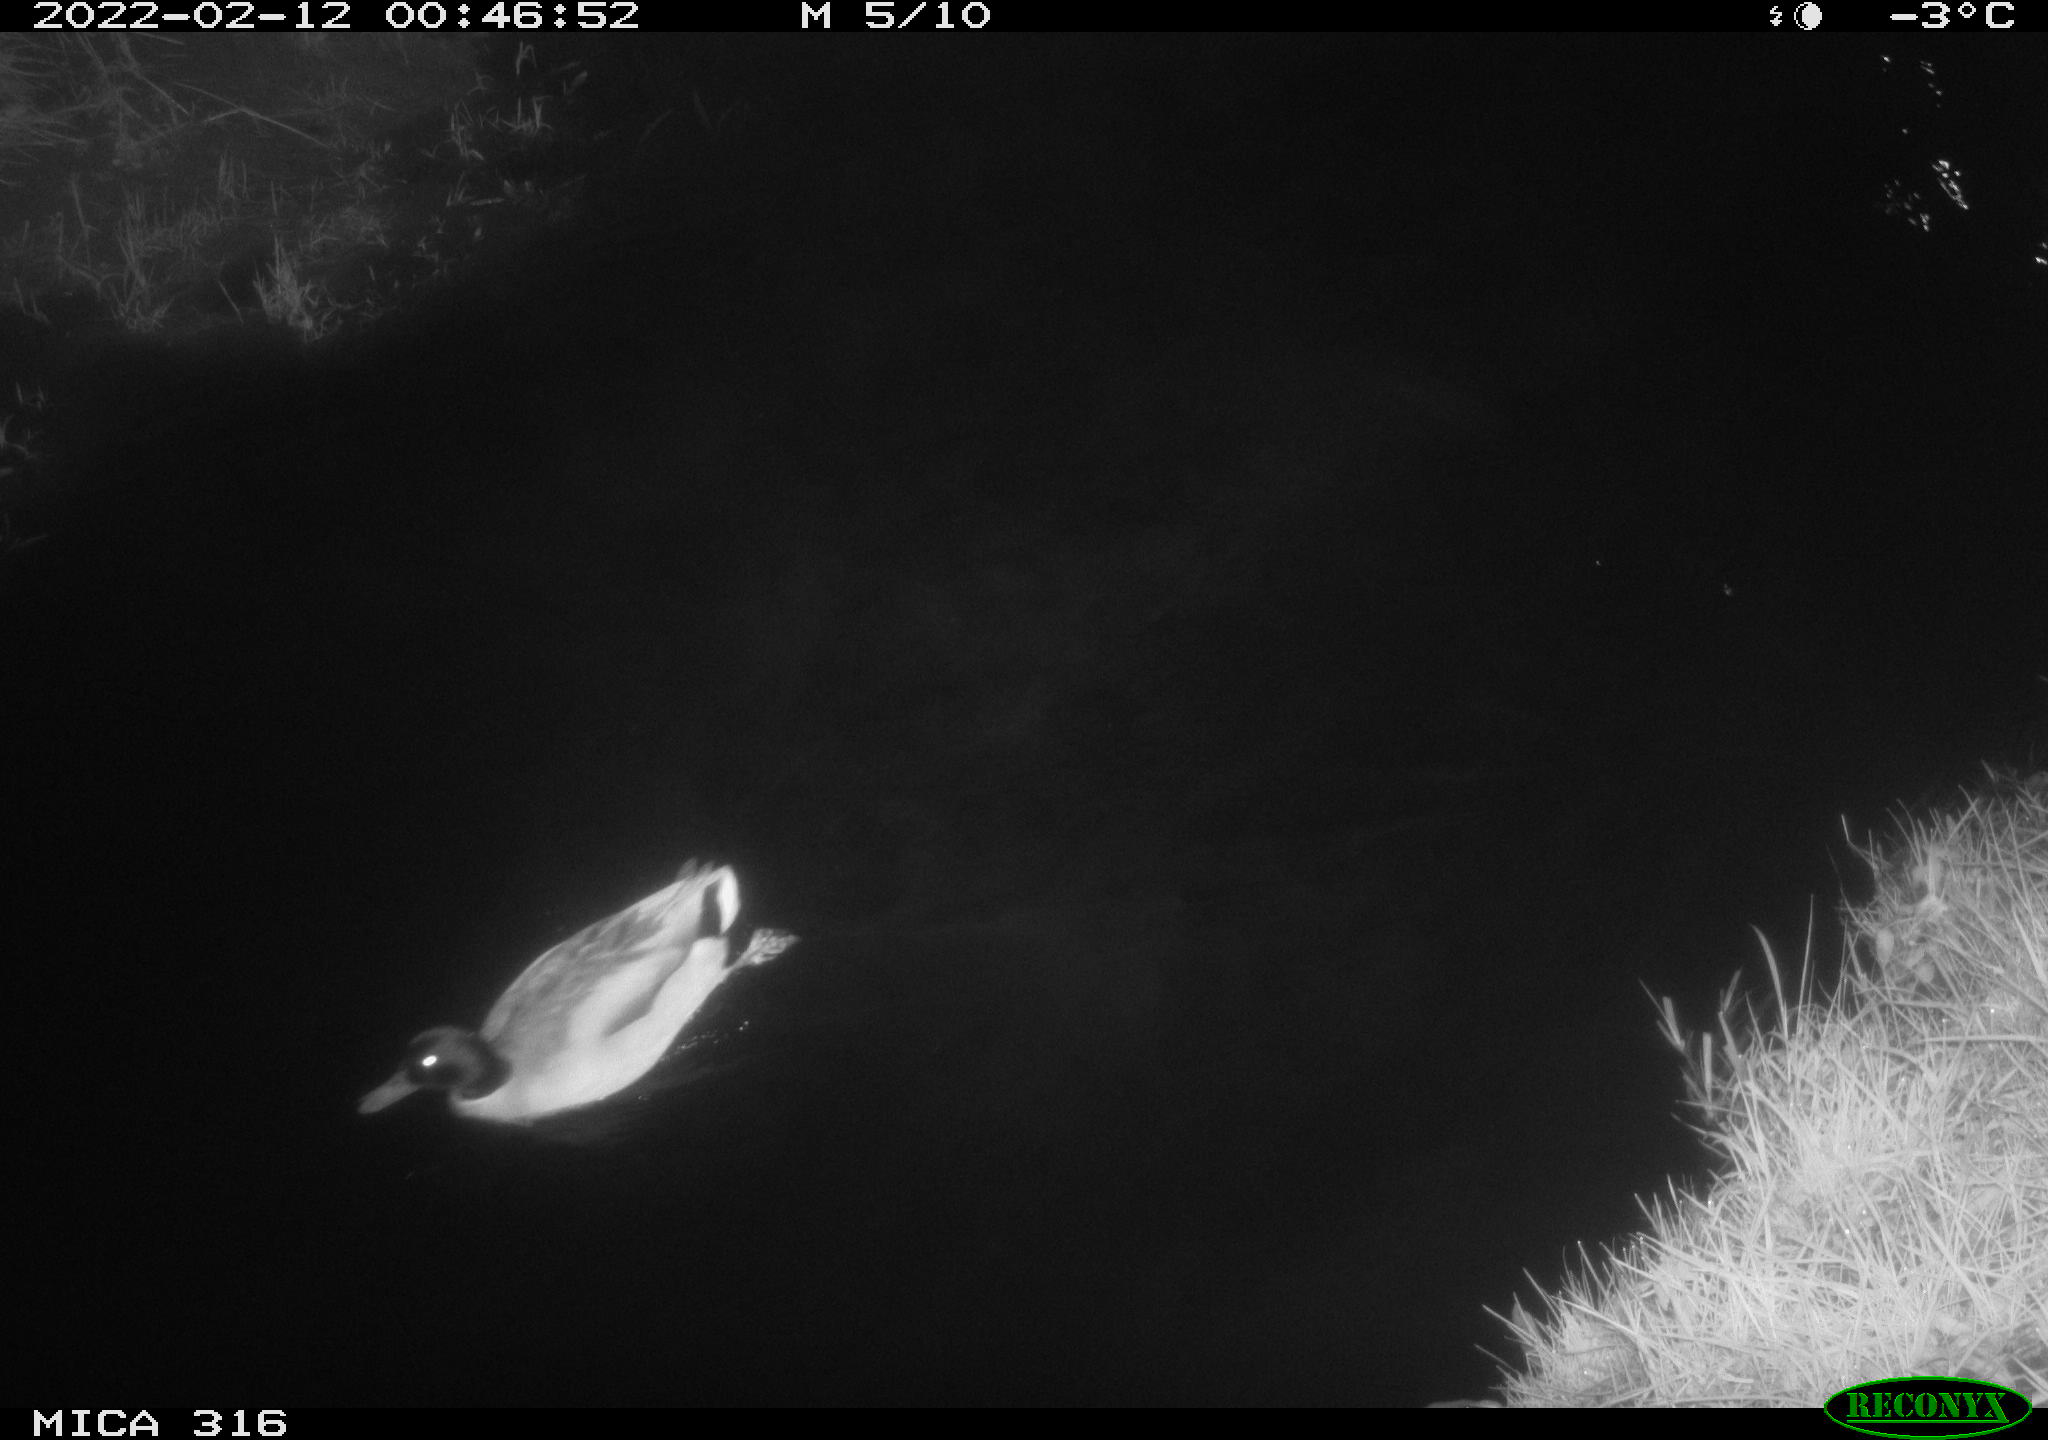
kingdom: Animalia
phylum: Chordata
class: Aves
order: Anseriformes
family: Anatidae
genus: Anas
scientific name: Anas platyrhynchos
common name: Mallard
